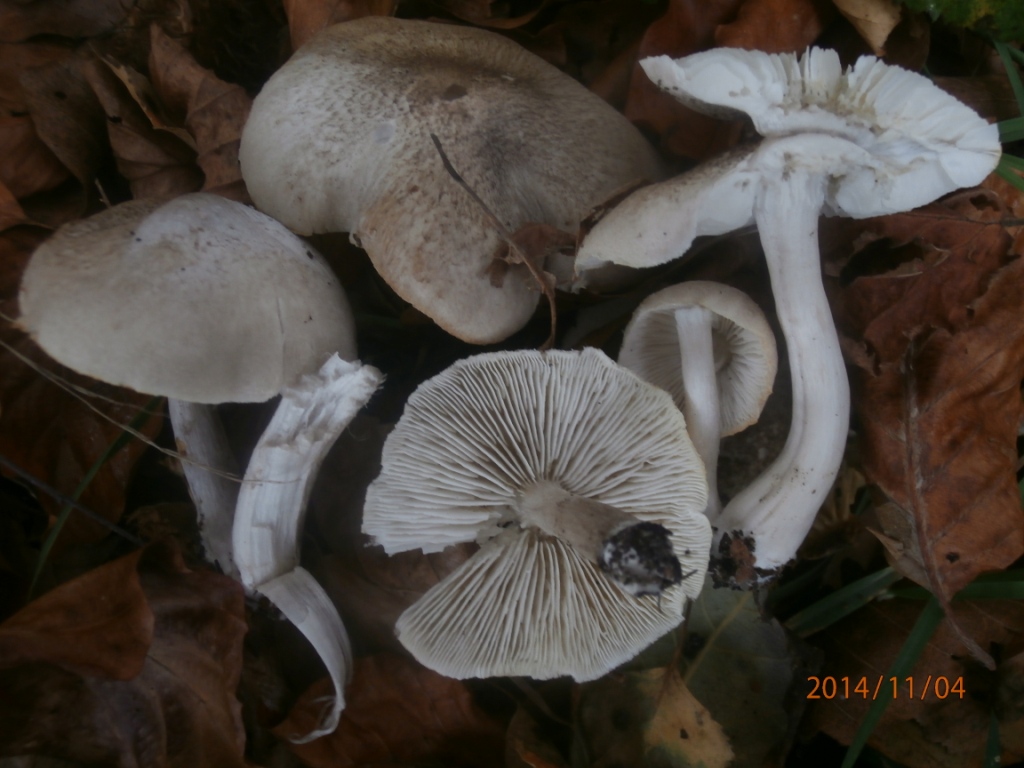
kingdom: Fungi
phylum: Basidiomycota
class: Agaricomycetes
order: Agaricales
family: Tricholomataceae
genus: Tricholoma
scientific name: Tricholoma scalpturatum
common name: gulplettet ridderhat
